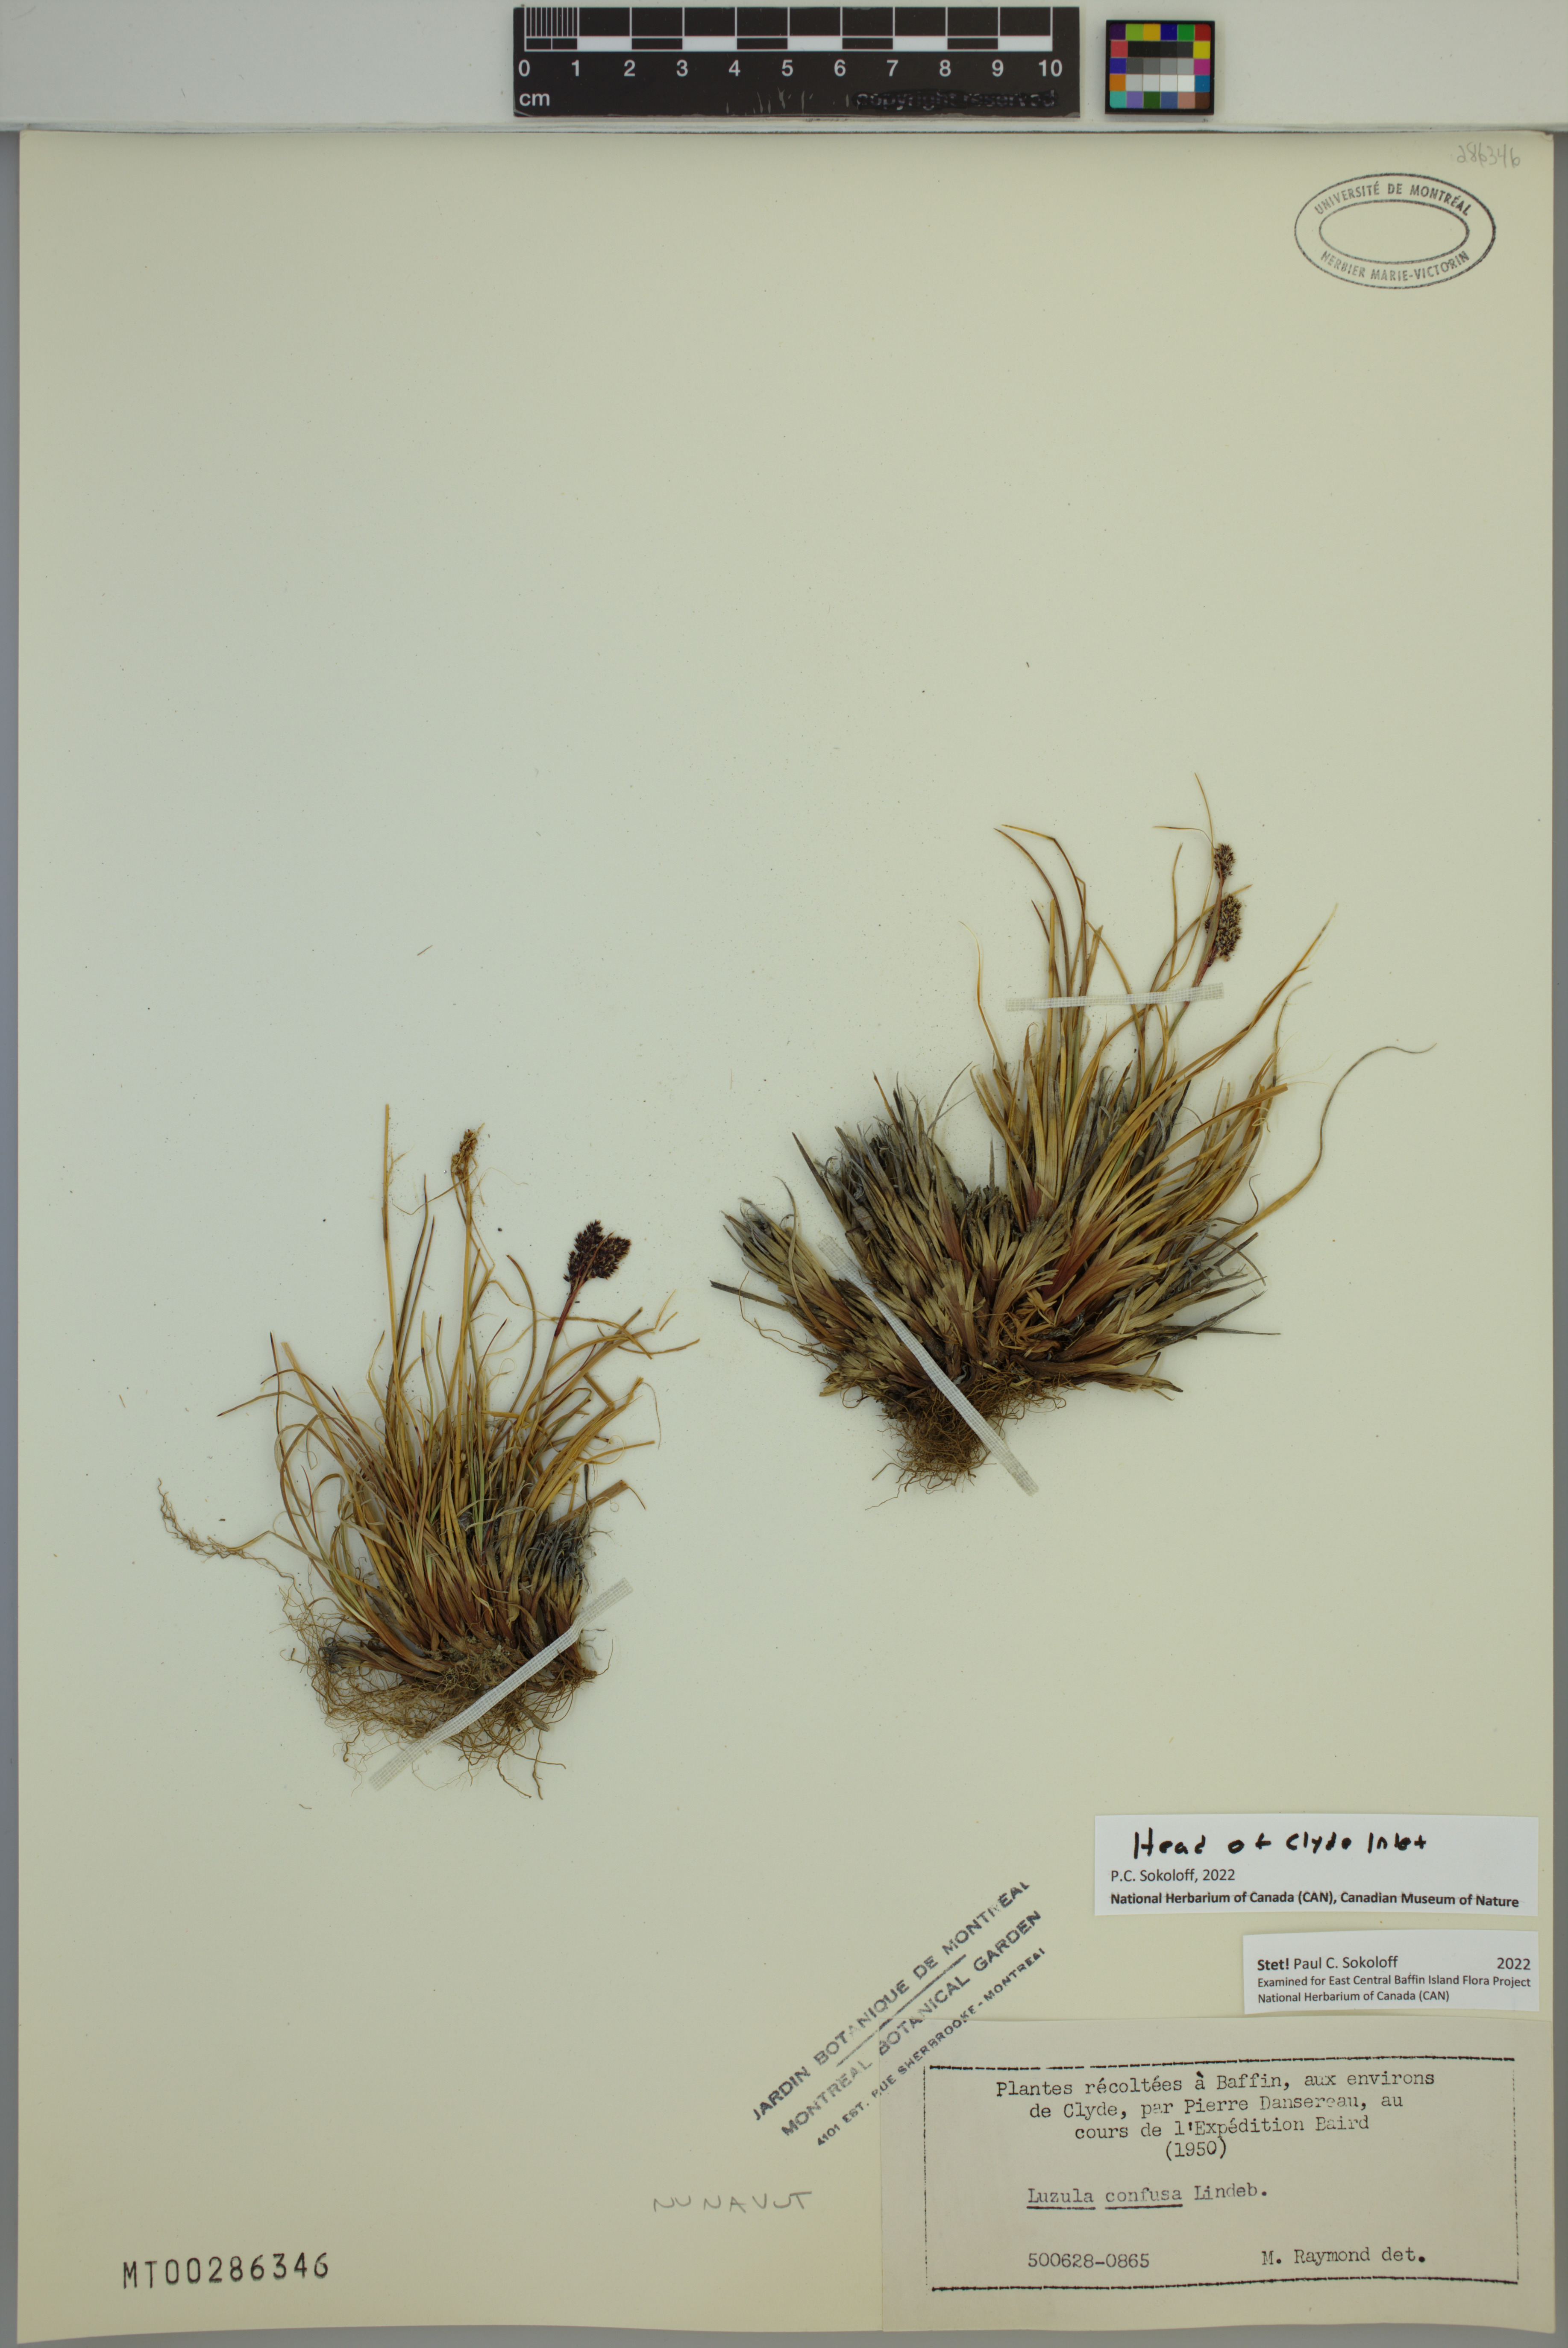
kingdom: Plantae
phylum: Tracheophyta
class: Liliopsida
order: Poales
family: Juncaceae
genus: Luzula
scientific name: Luzula confusa
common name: Northern wood rush
